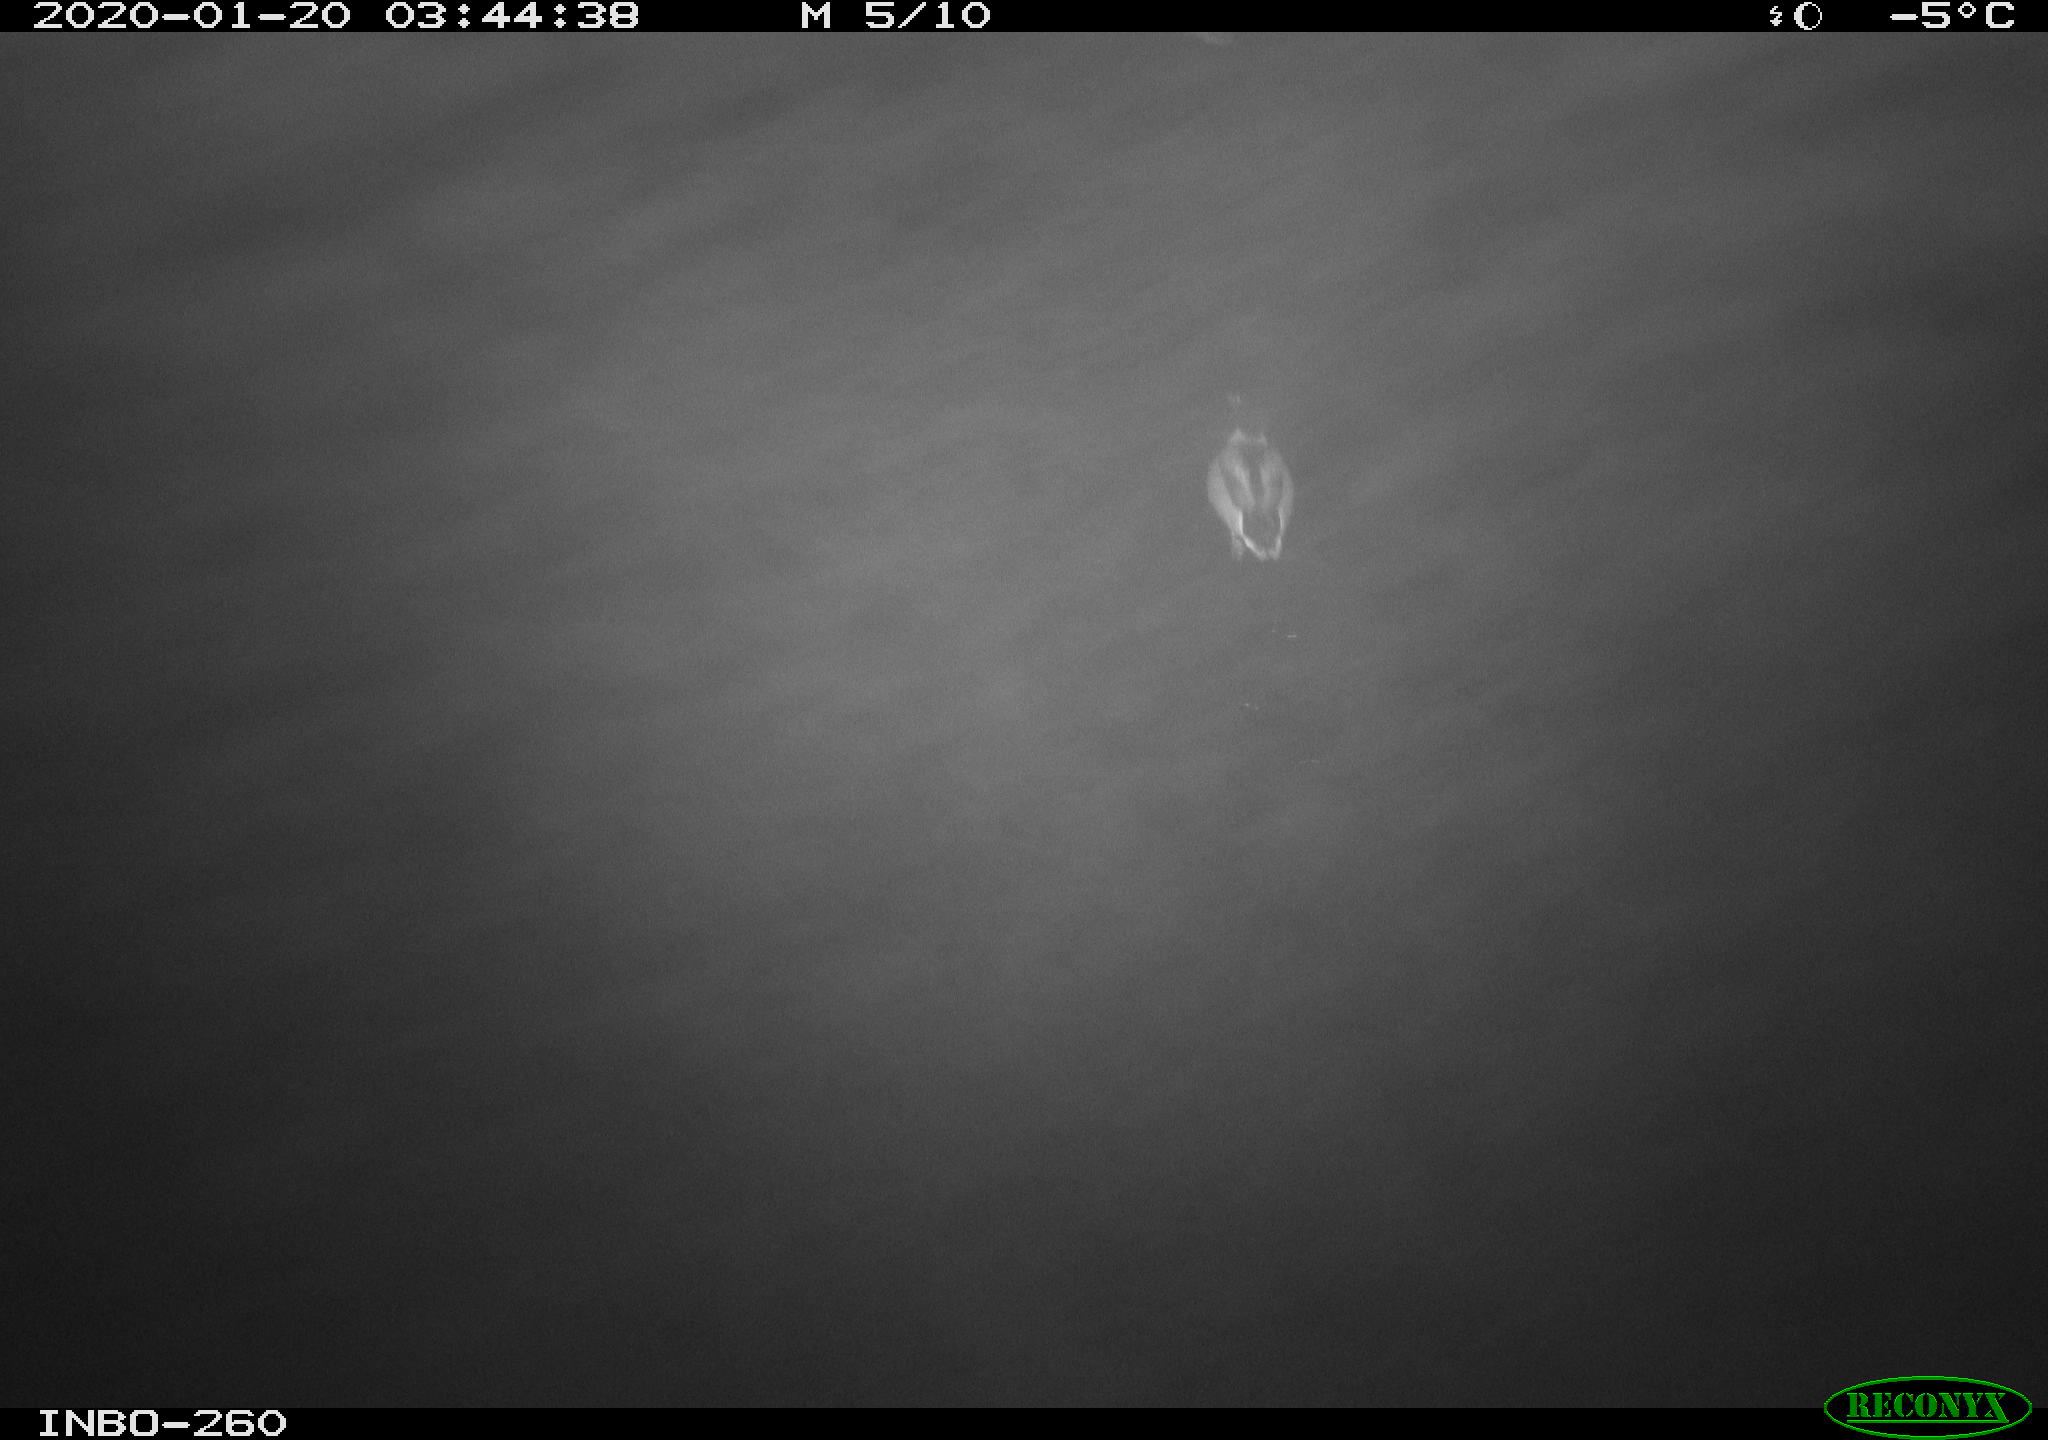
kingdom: Animalia
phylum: Chordata
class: Aves
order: Anseriformes
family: Anatidae
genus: Anas
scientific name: Anas platyrhynchos
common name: Mallard
